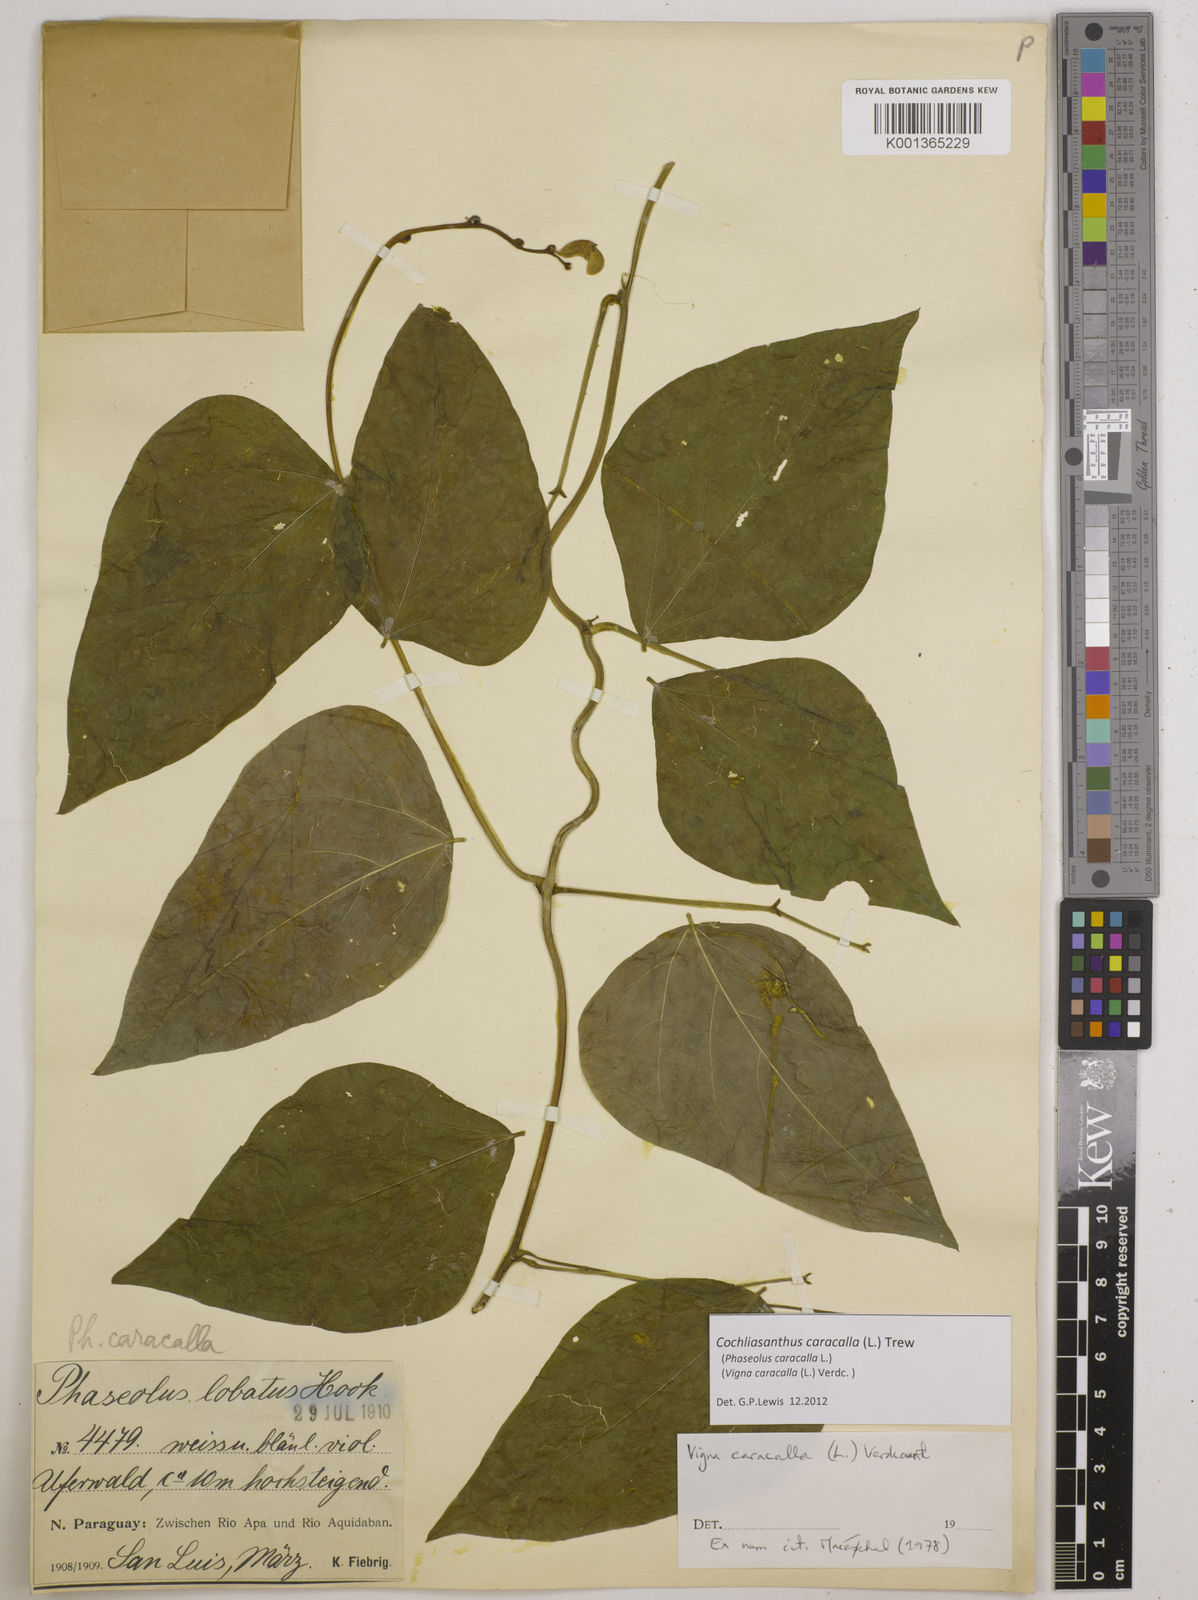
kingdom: Plantae
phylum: Tracheophyta
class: Magnoliopsida
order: Fabales
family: Fabaceae
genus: Cochliasanthus
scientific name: Cochliasanthus caracalla
